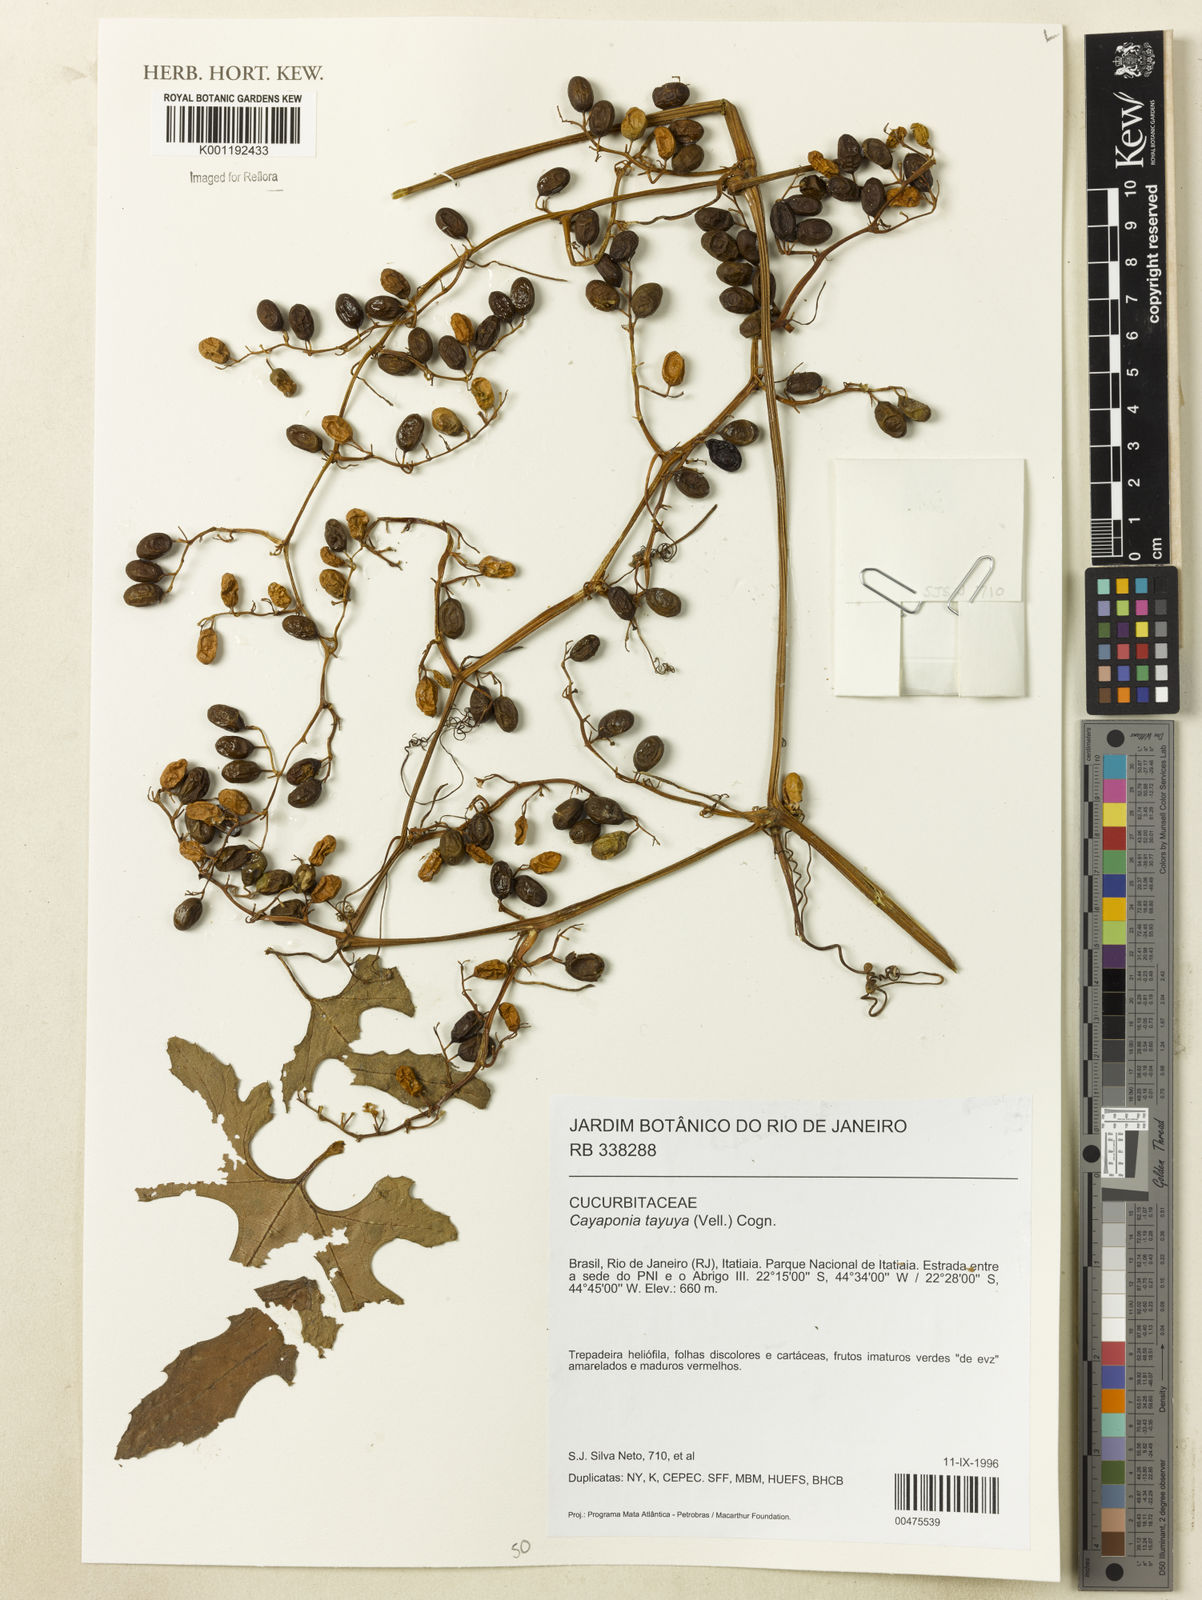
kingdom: Plantae
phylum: Tracheophyta
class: Magnoliopsida
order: Cucurbitales
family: Cucurbitaceae
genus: Cayaponia
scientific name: Cayaponia tayuya
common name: Tayuya
